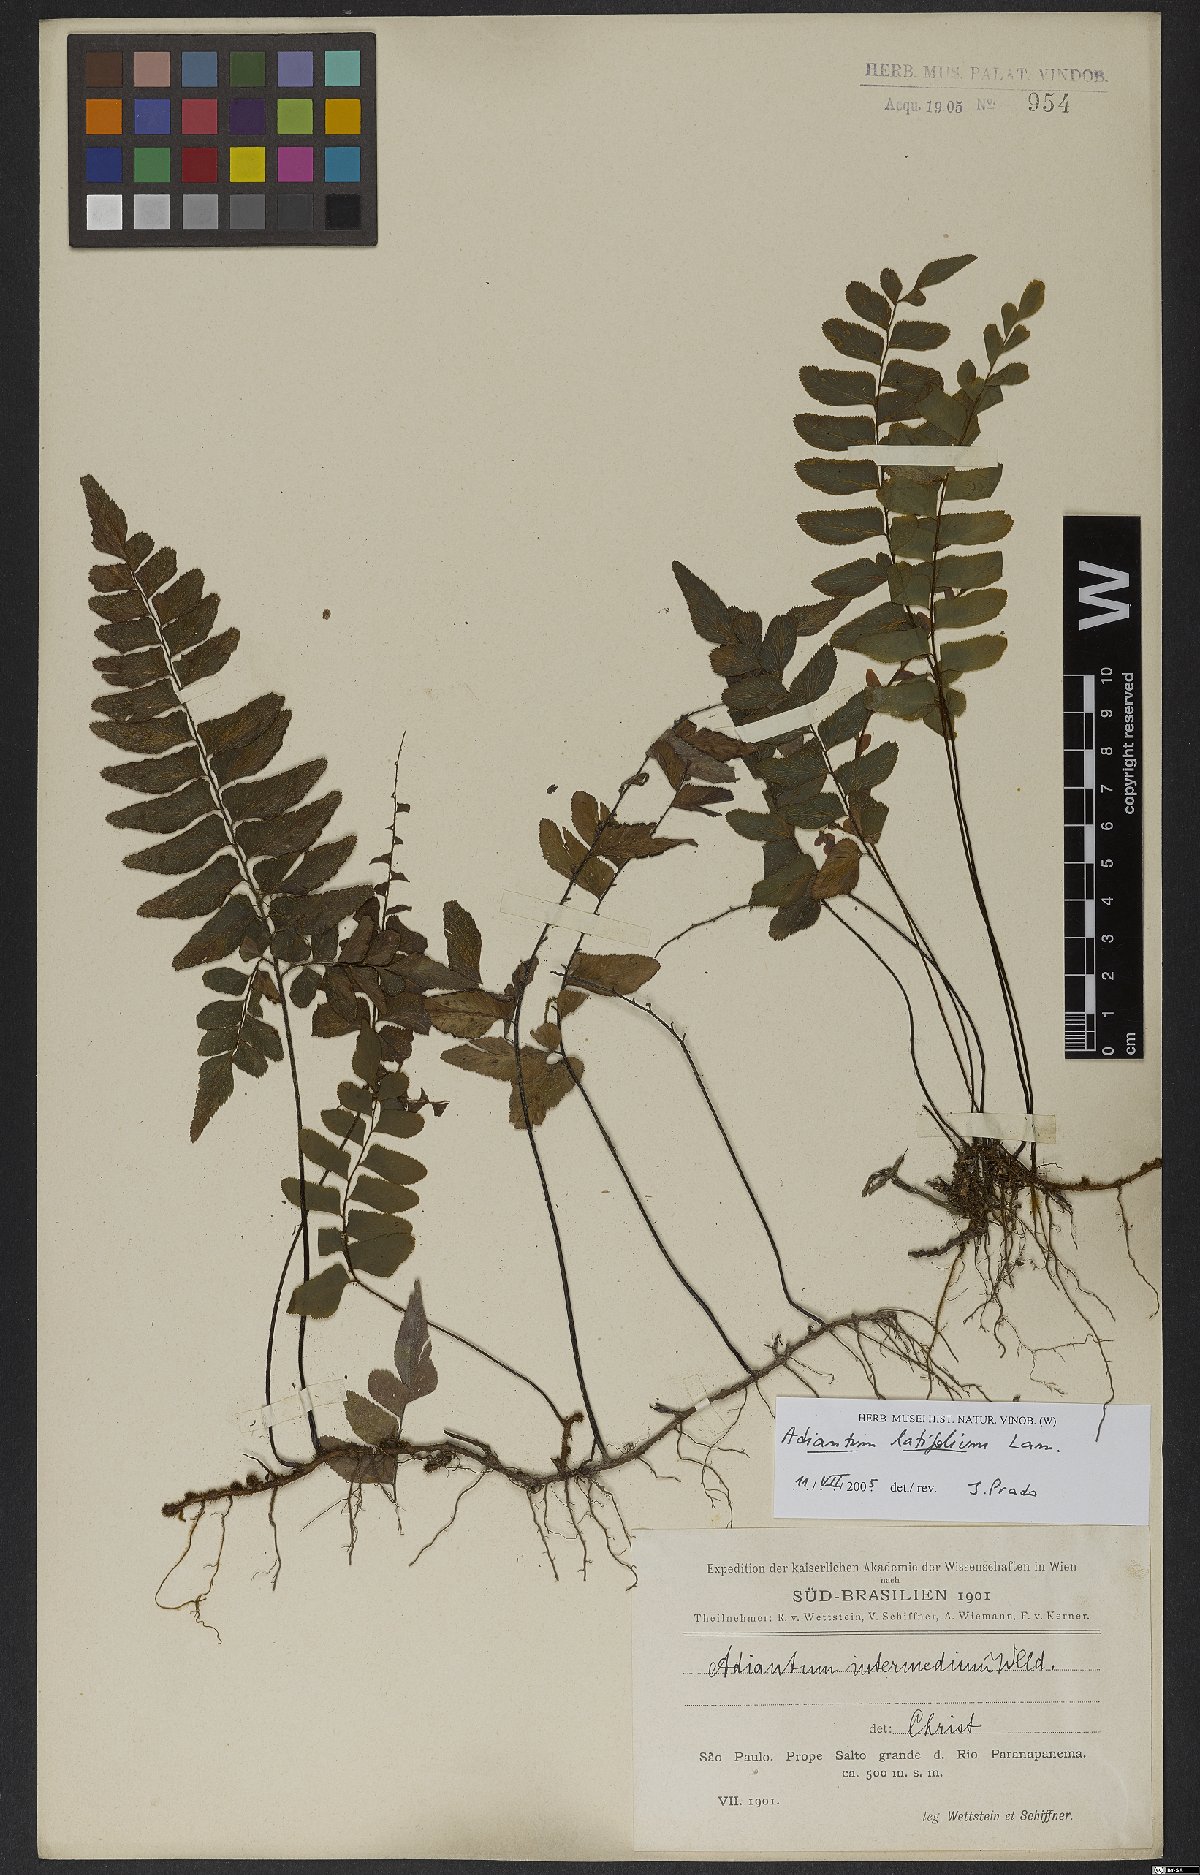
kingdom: Plantae
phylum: Tracheophyta
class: Polypodiopsida
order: Polypodiales
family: Pteridaceae
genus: Adiantum
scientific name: Adiantum latifolium
